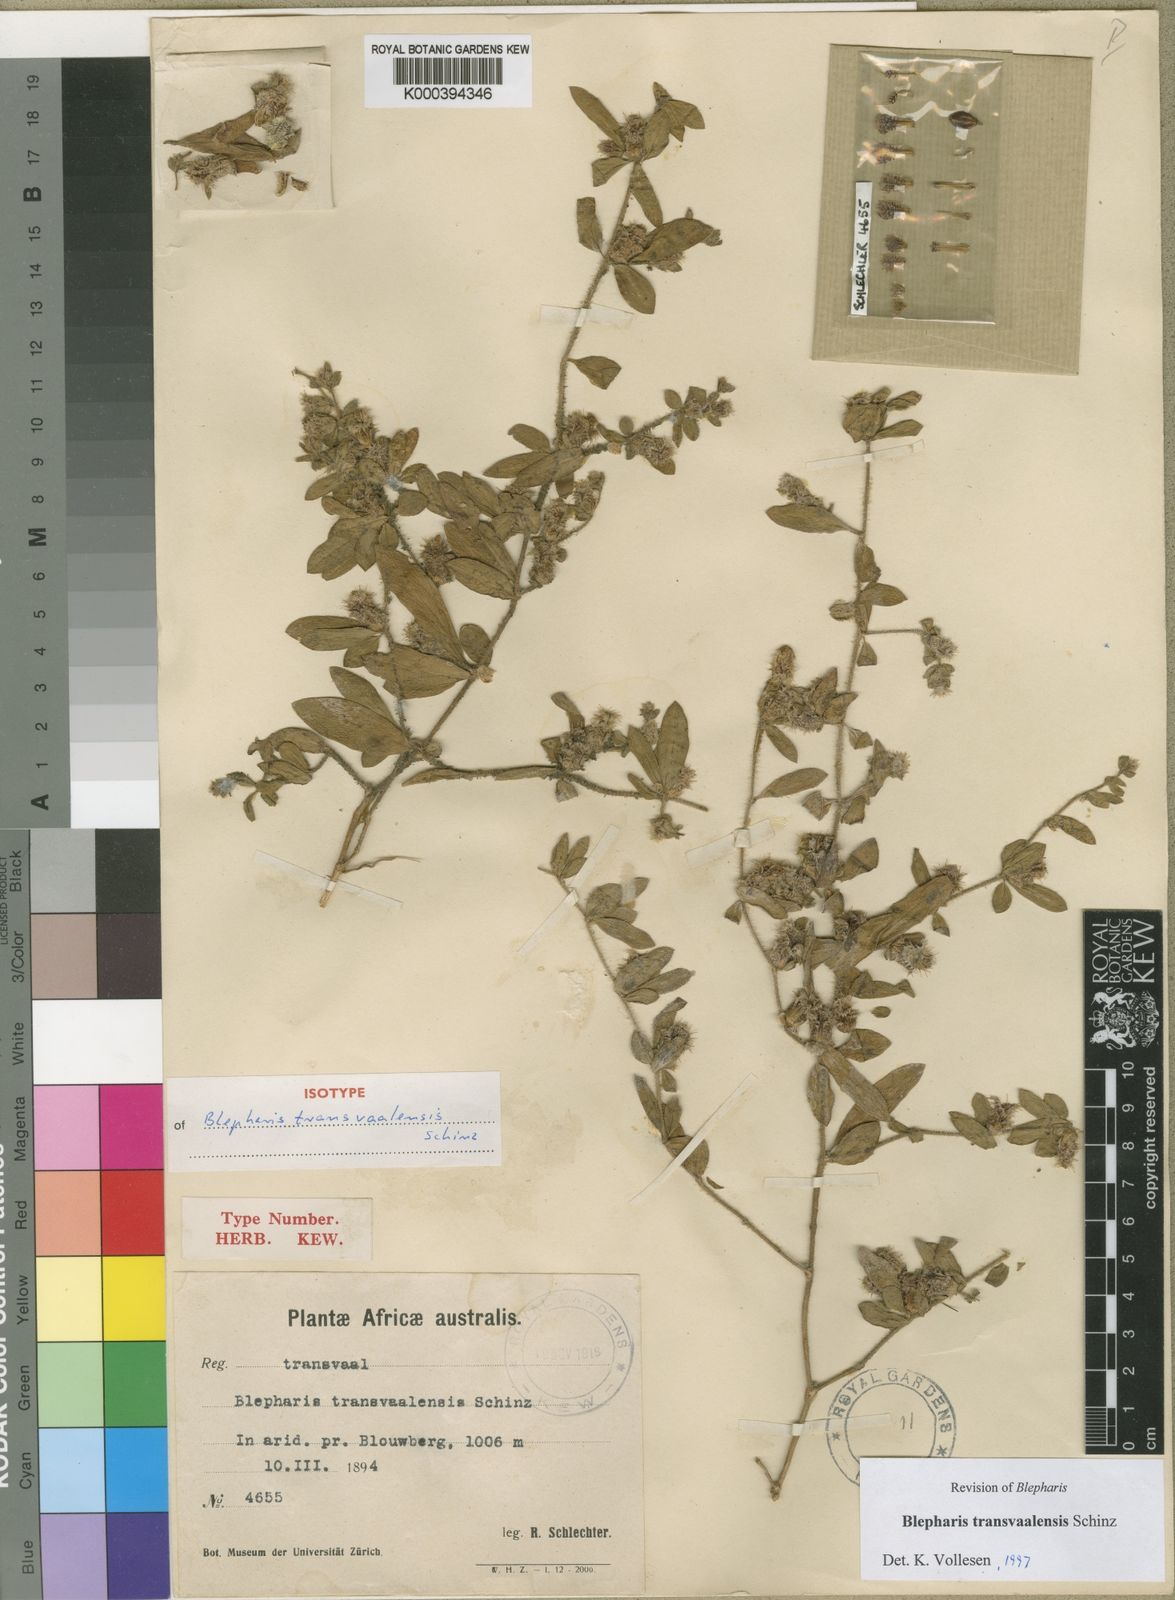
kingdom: Plantae
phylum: Tracheophyta
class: Magnoliopsida
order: Lamiales
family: Acanthaceae
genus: Blepharis
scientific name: Blepharis transvaalensis
